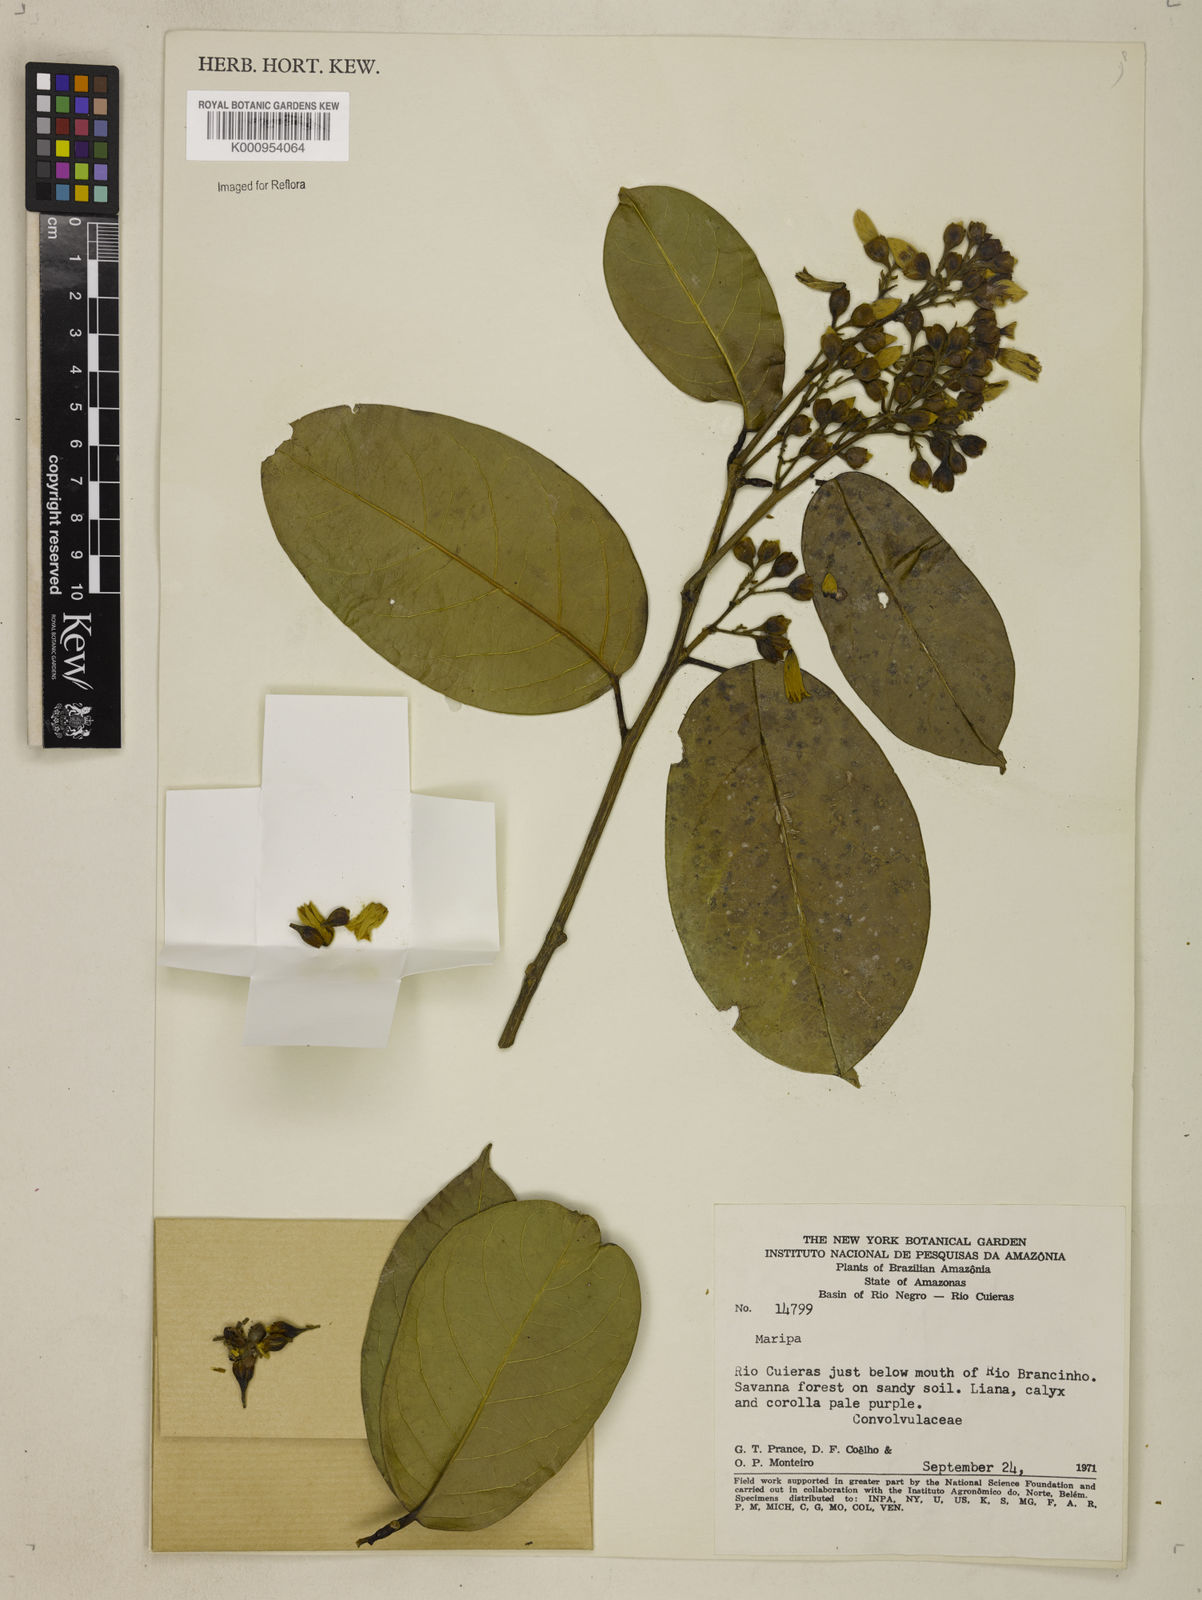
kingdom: Plantae
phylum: Tracheophyta
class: Magnoliopsida
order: Solanales
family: Convolvulaceae
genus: Maripa
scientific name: Maripa
